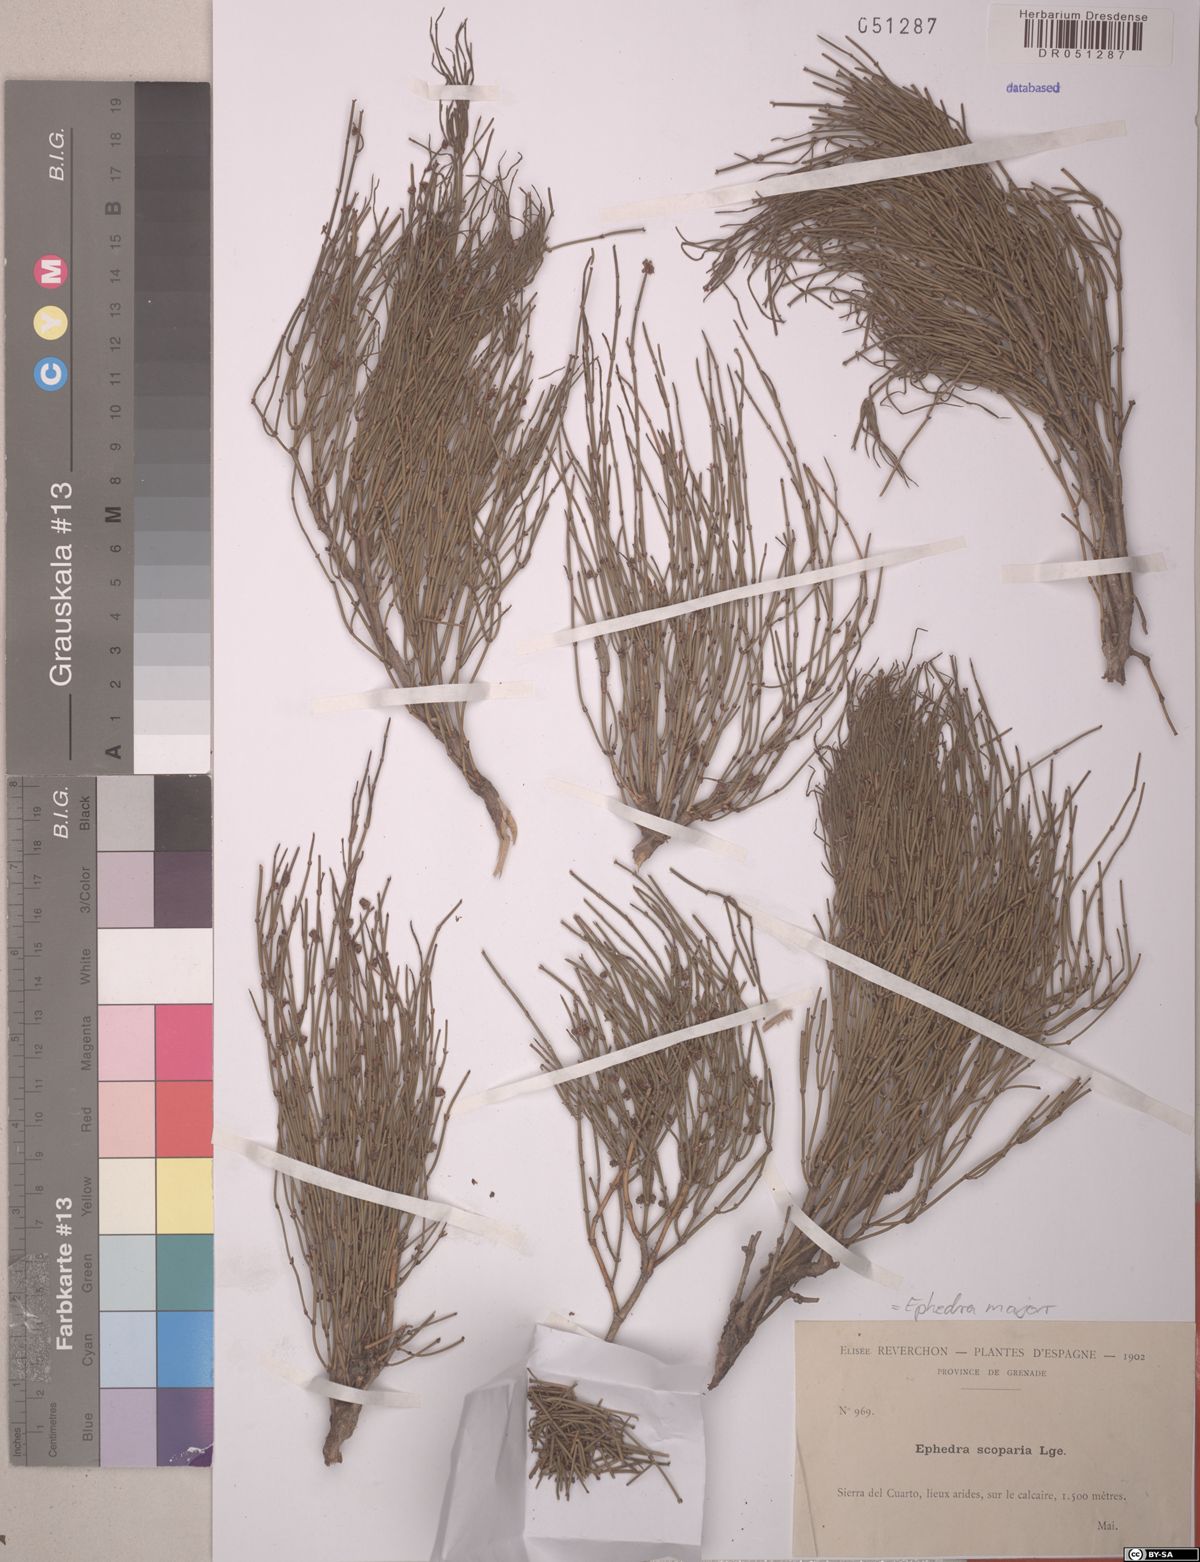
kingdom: Plantae
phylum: Tracheophyta
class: Gnetopsida
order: Ephedrales
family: Ephedraceae
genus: Ephedra
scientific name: Ephedra foeminea
